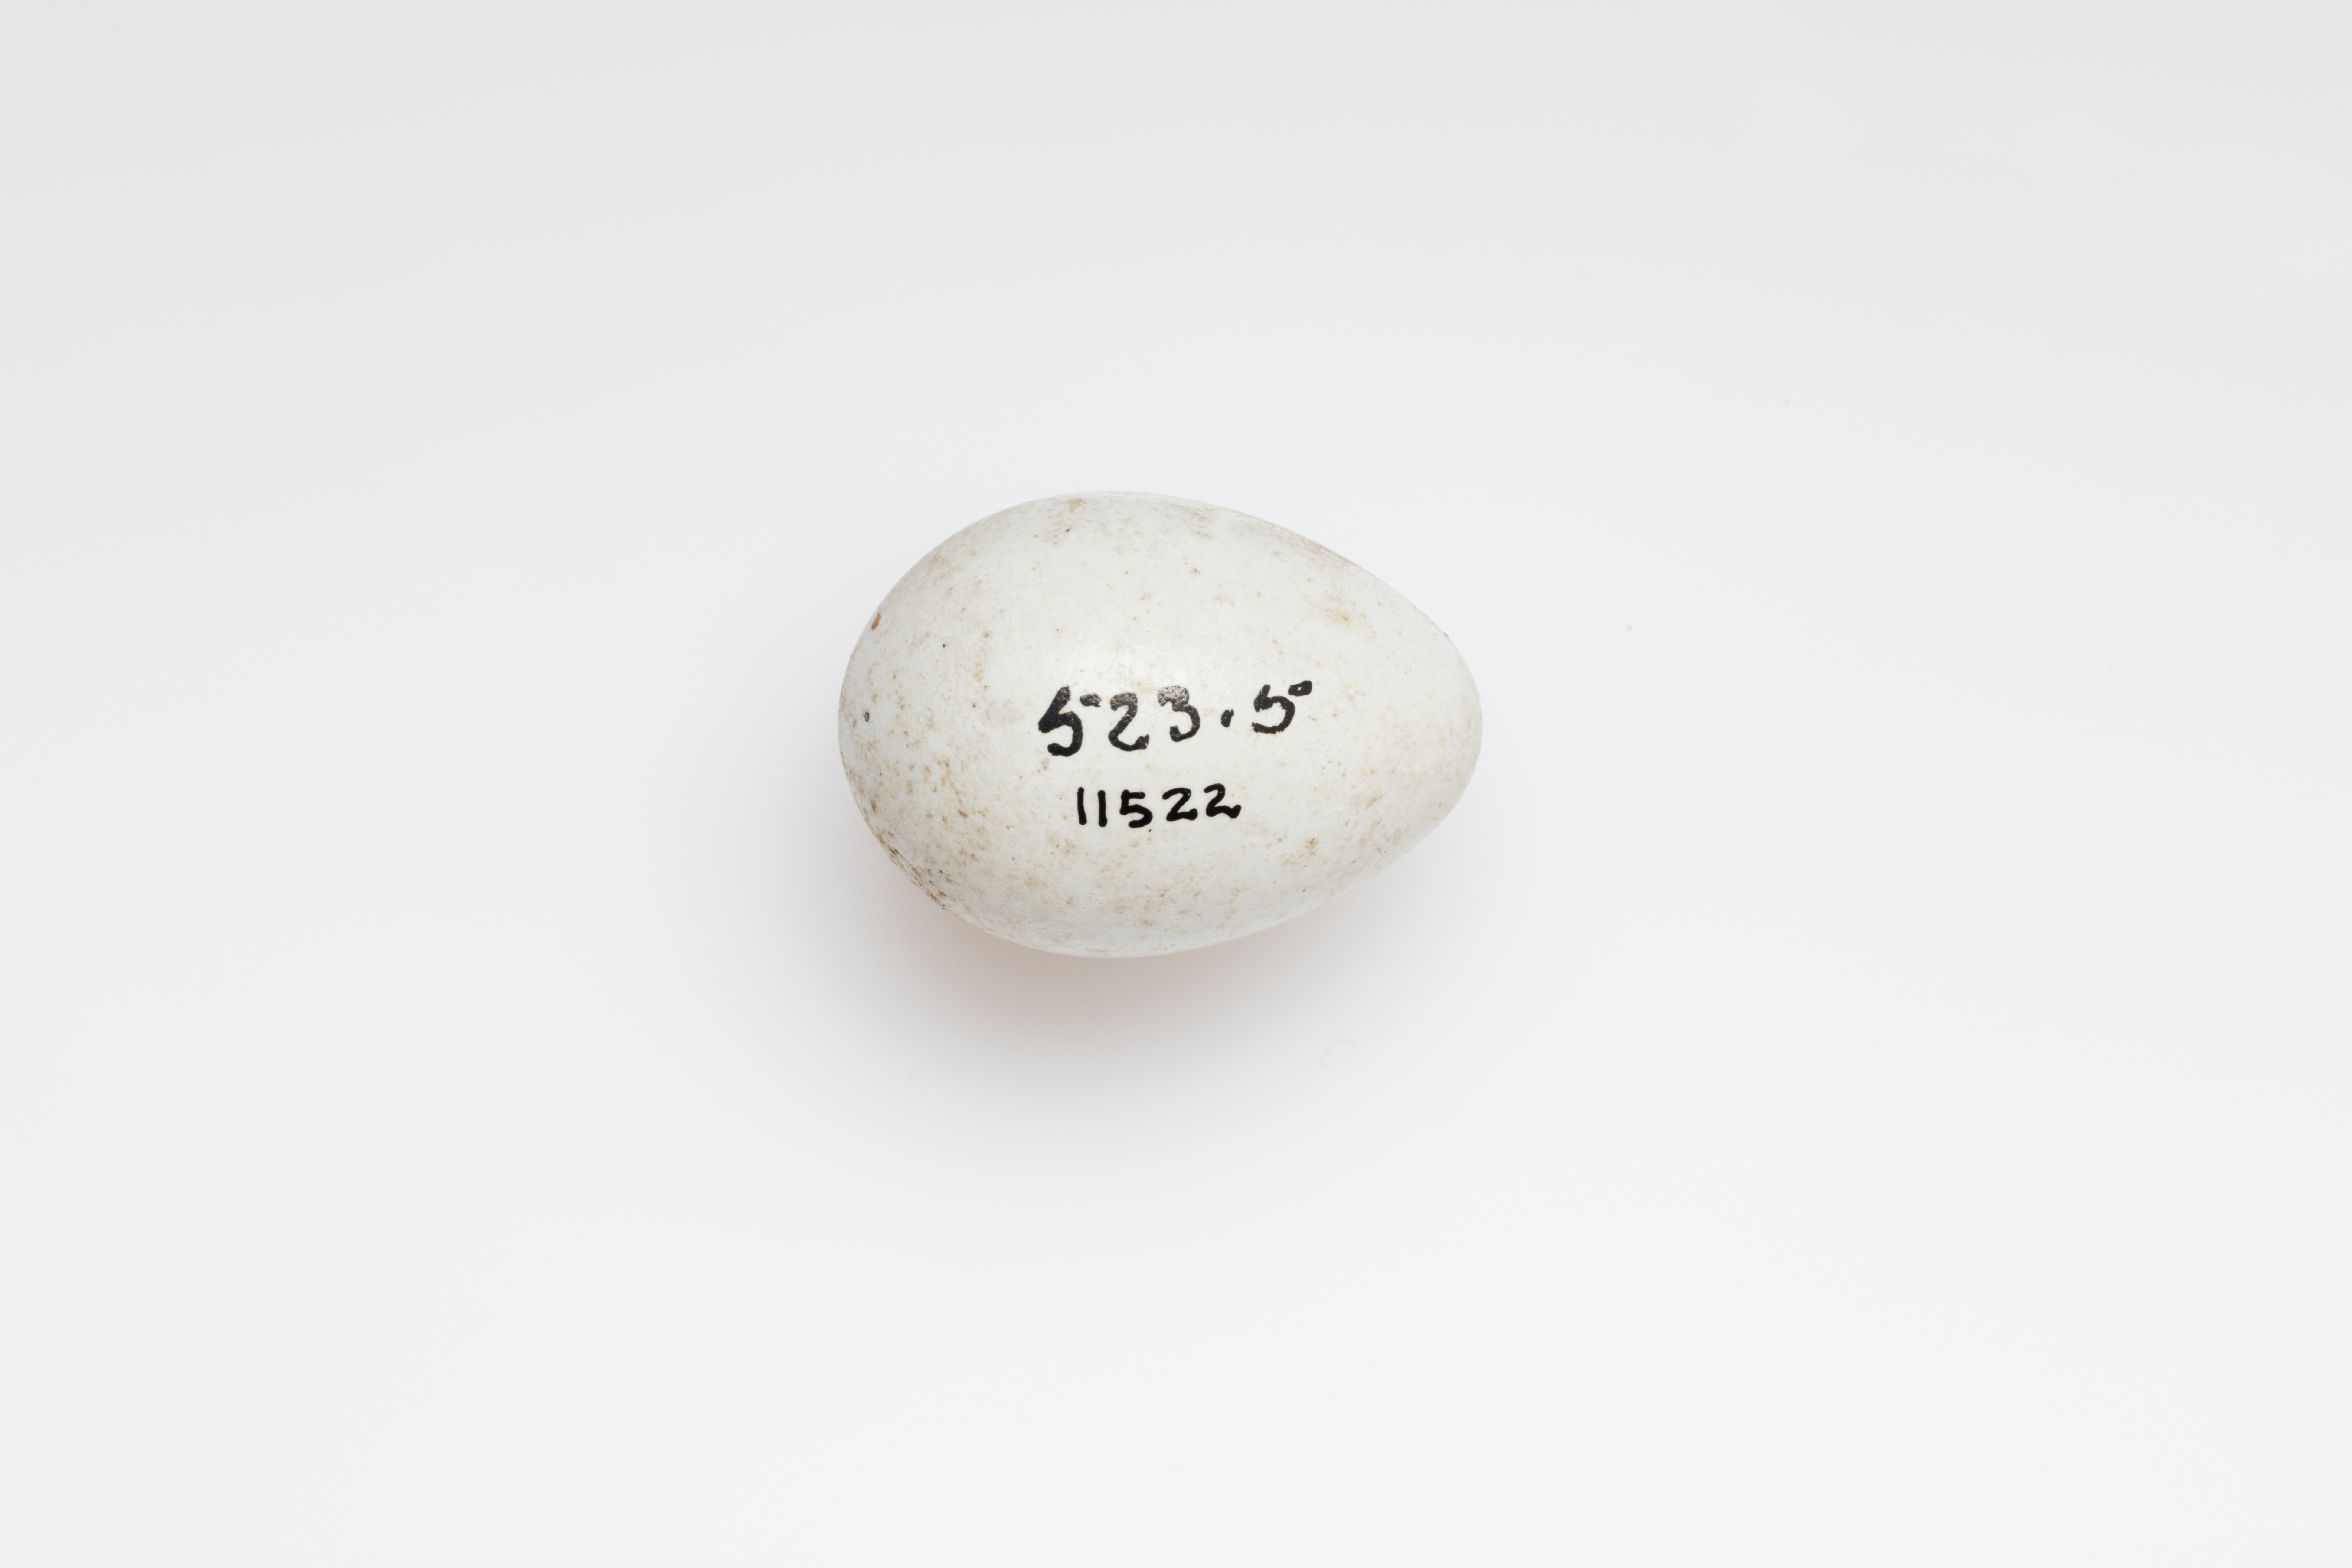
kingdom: Animalia
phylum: Chordata
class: Aves
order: Passeriformes
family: Sturnidae
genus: Sturnus
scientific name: Sturnus vulgaris
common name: Common starling
